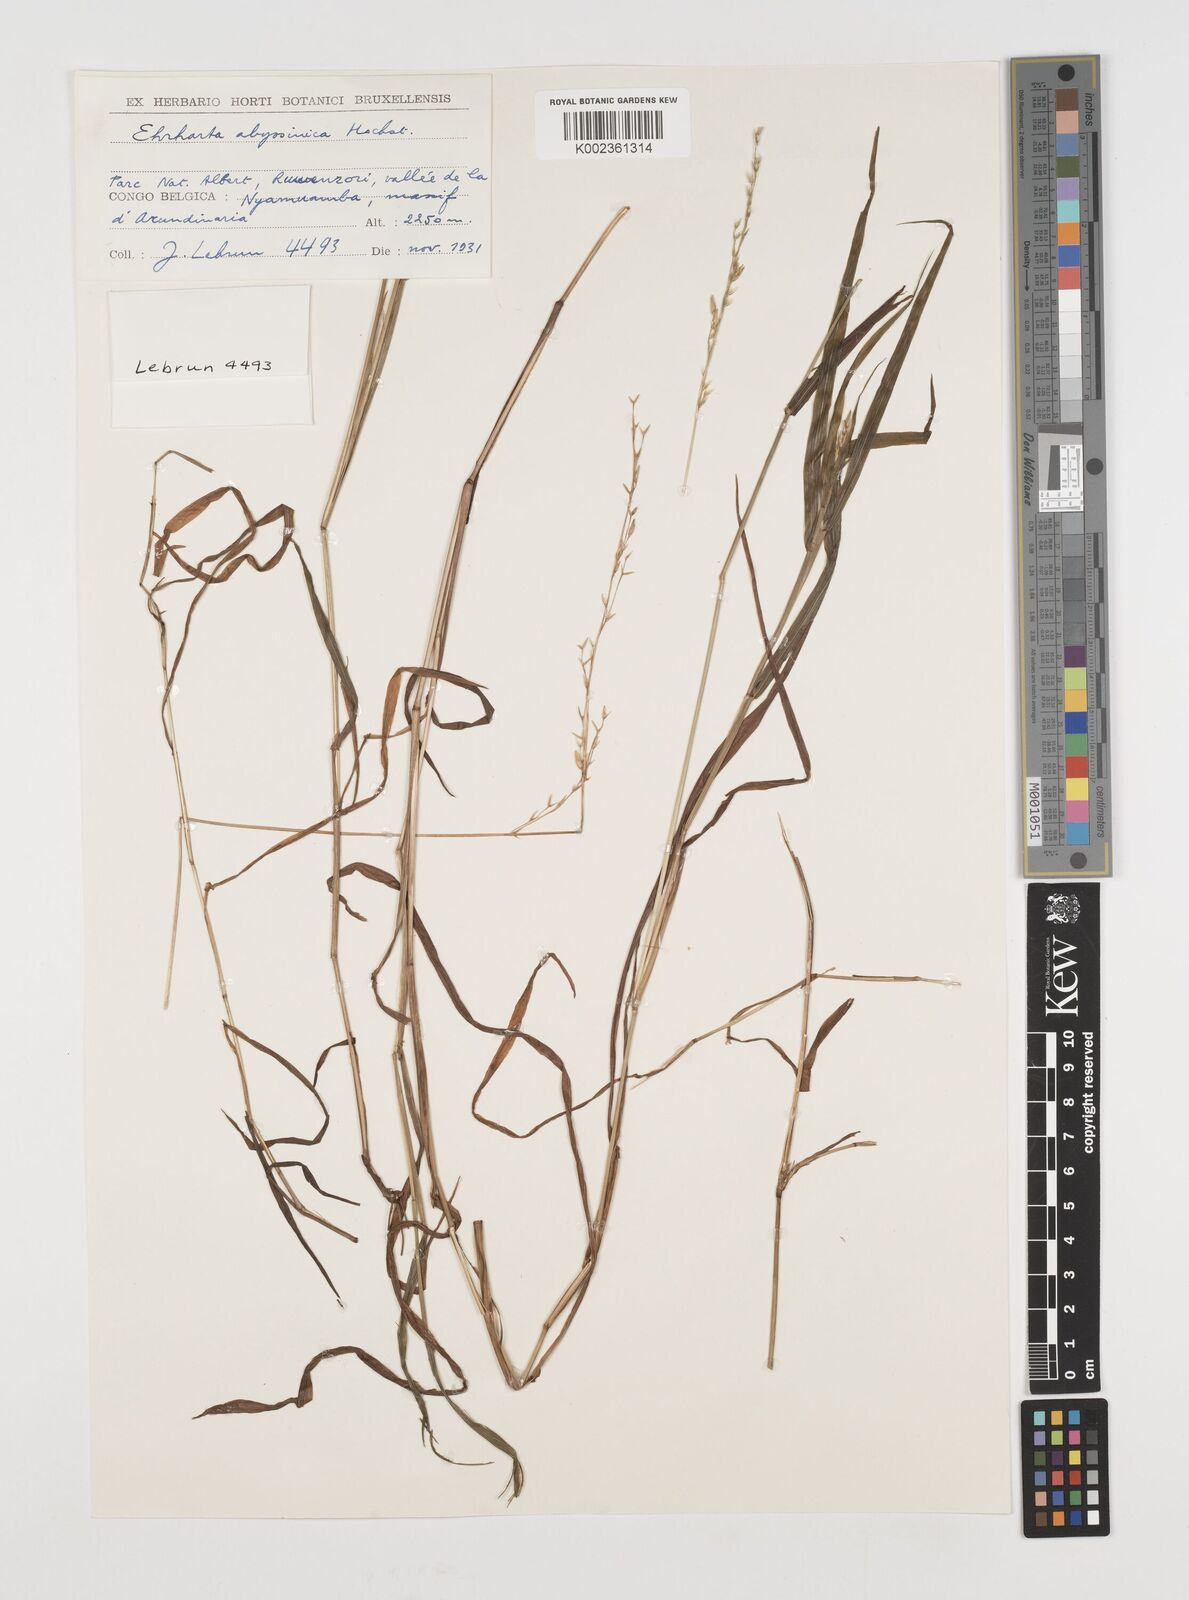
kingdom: Plantae
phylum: Tracheophyta
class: Liliopsida
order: Poales
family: Poaceae
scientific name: Poaceae
